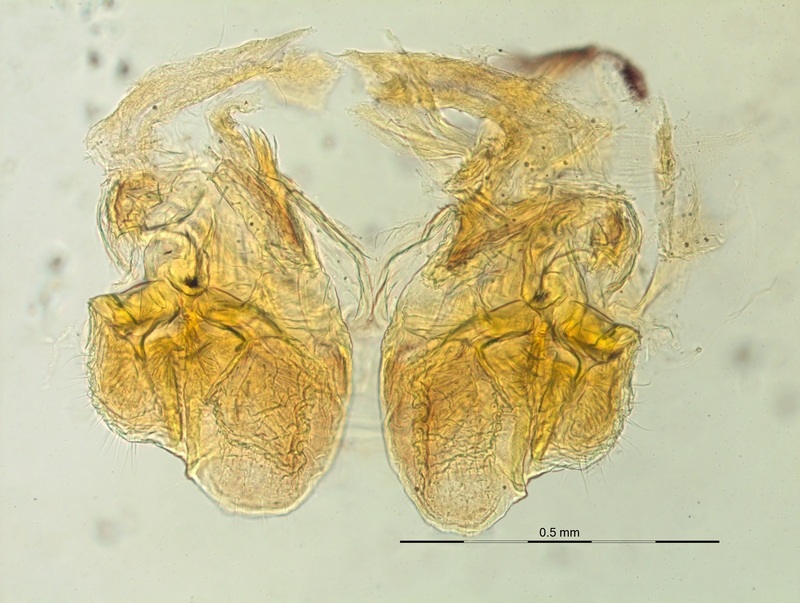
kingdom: Animalia
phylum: Arthropoda
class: Diplopoda
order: Chordeumatida
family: Craspedosomatidae
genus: Craspedosoma
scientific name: Craspedosoma alemannicum
